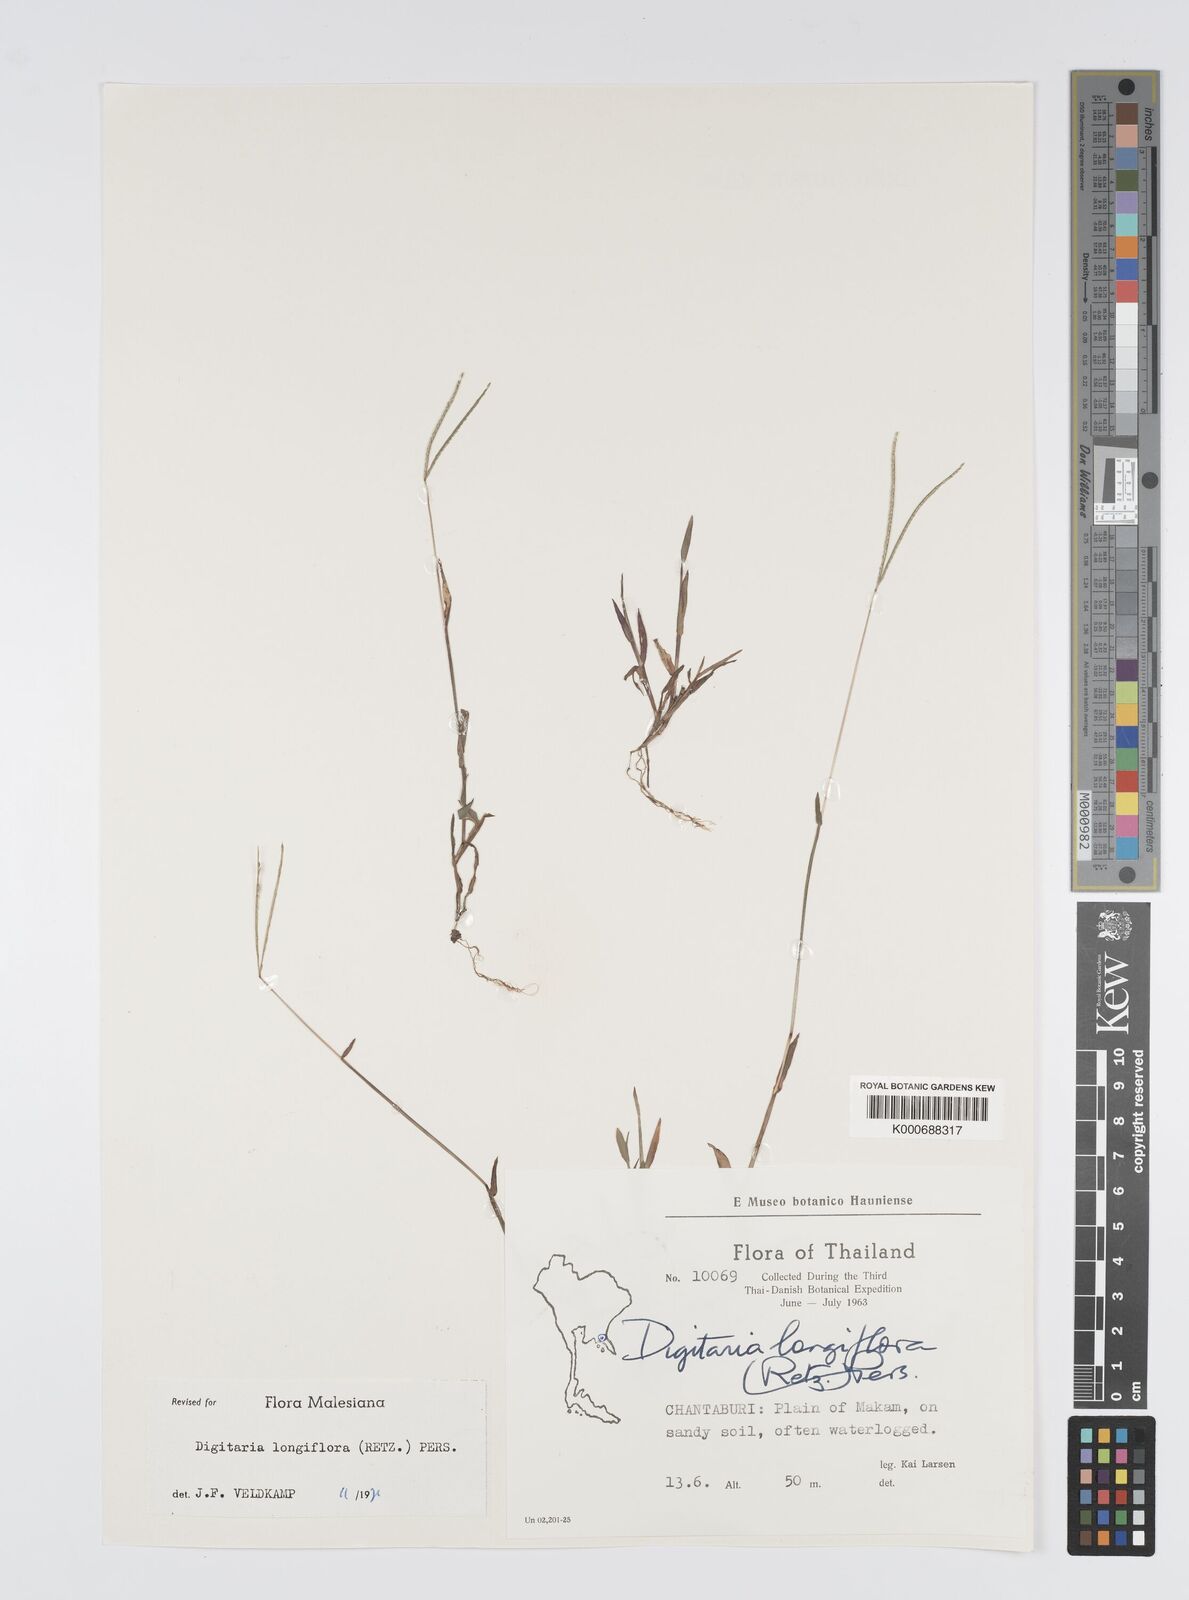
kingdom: Plantae
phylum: Tracheophyta
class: Liliopsida
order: Poales
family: Poaceae
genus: Digitaria
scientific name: Digitaria longiflora
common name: Wire crabgrass
